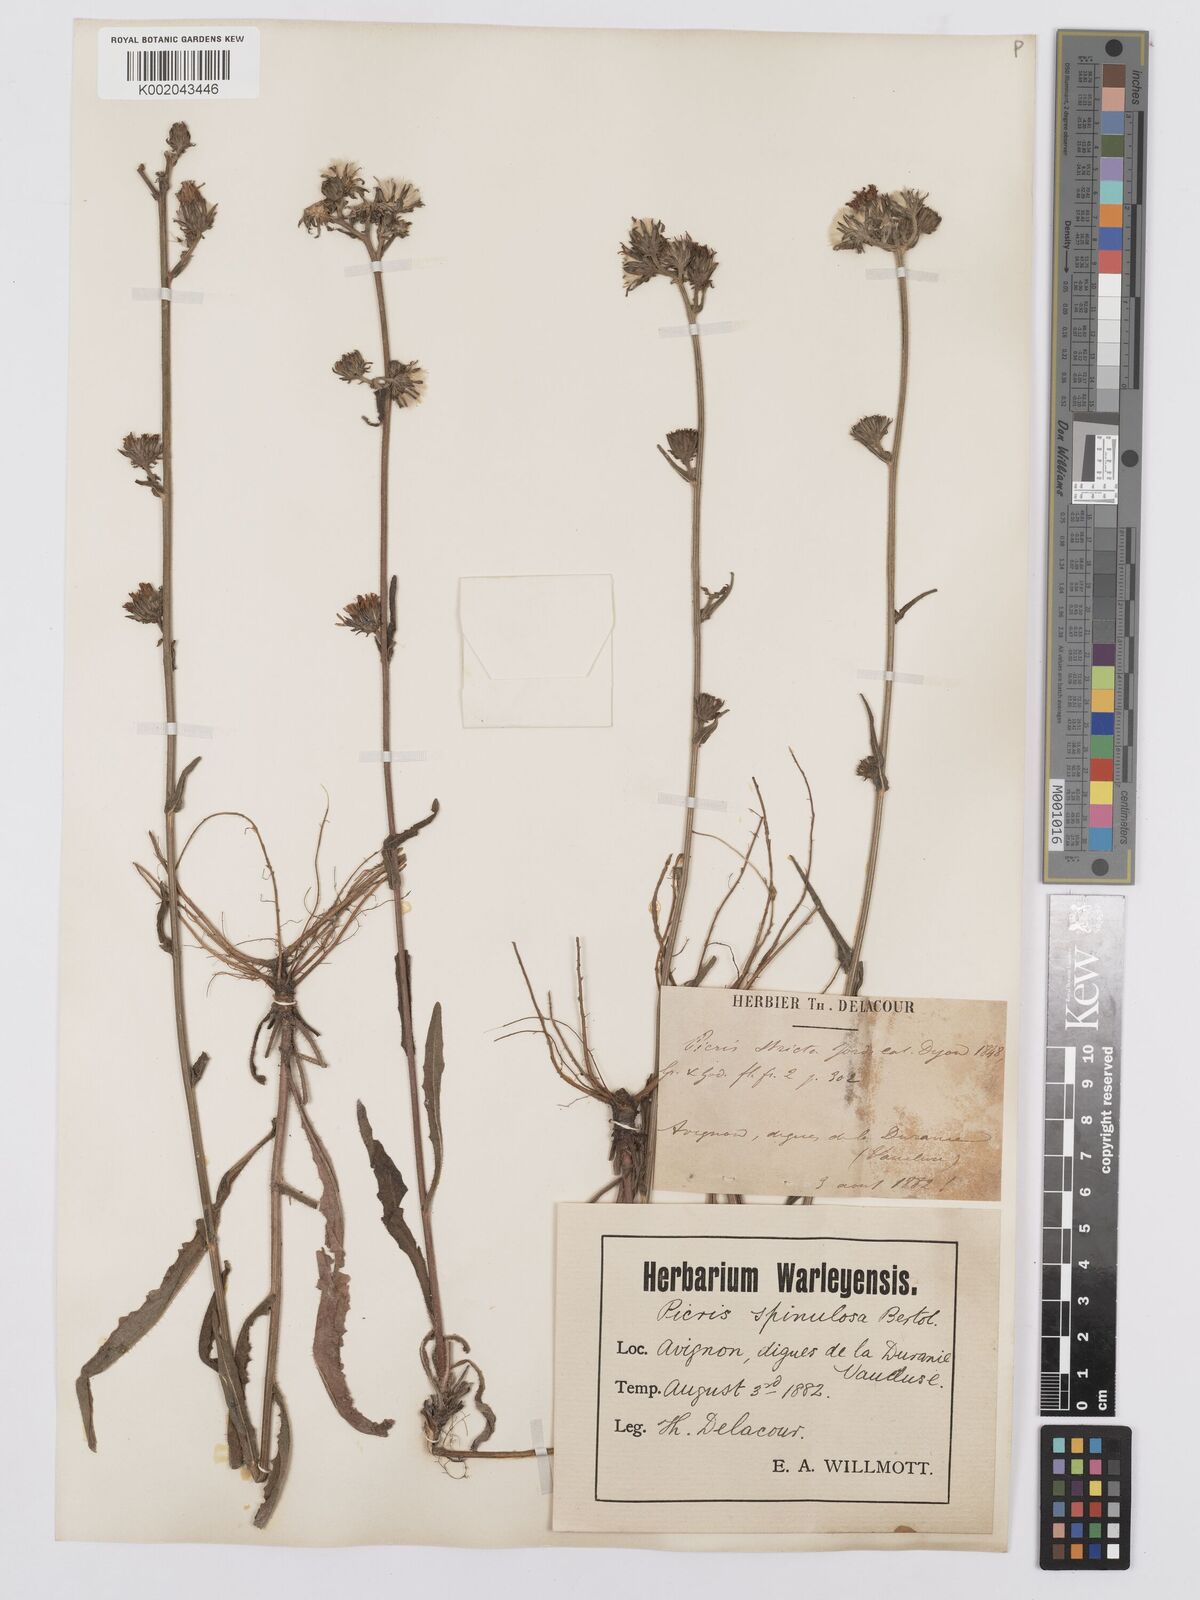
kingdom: Plantae
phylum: Tracheophyta
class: Magnoliopsida
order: Asterales
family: Asteraceae
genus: Picris
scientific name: Picris hieracioides
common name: Hawkweed oxtongue
